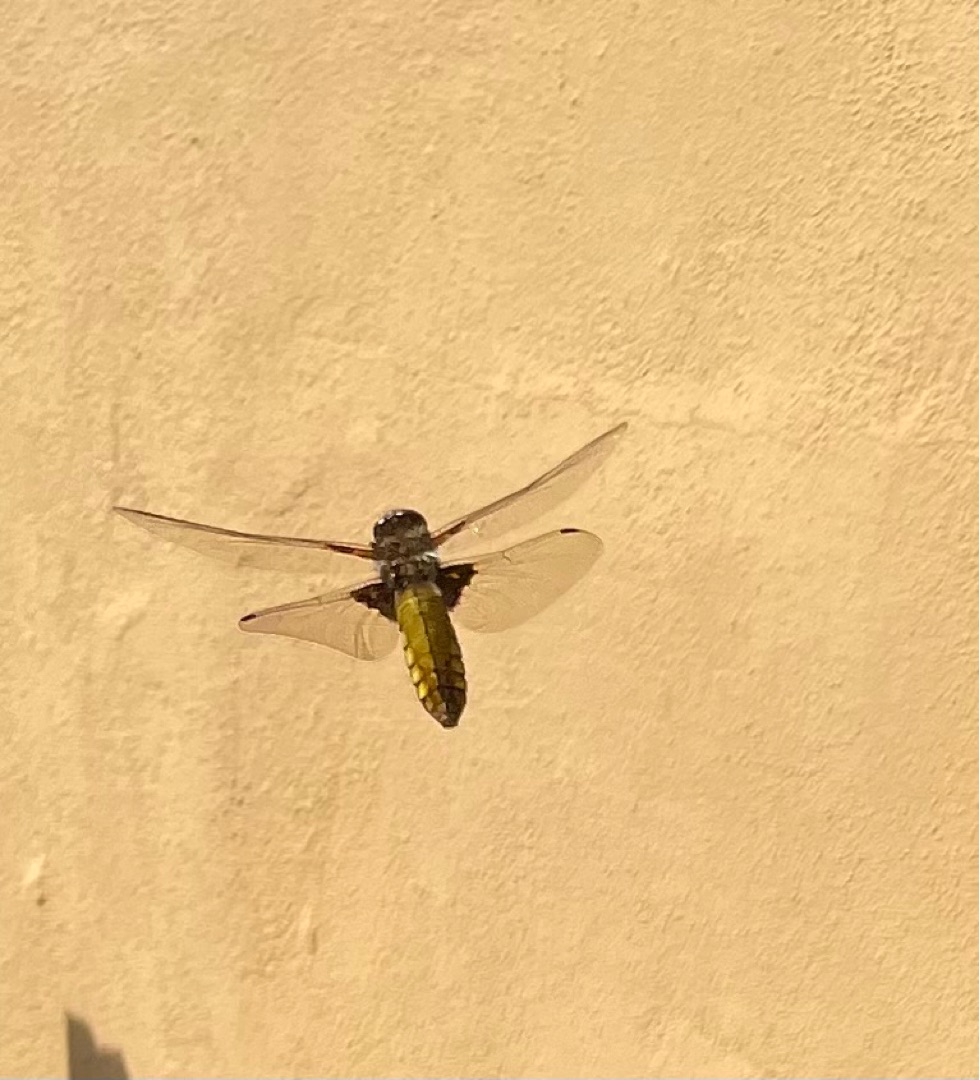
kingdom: Animalia
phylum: Arthropoda
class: Insecta
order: Odonata
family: Libellulidae
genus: Libellula
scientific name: Libellula depressa
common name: Blå libel
